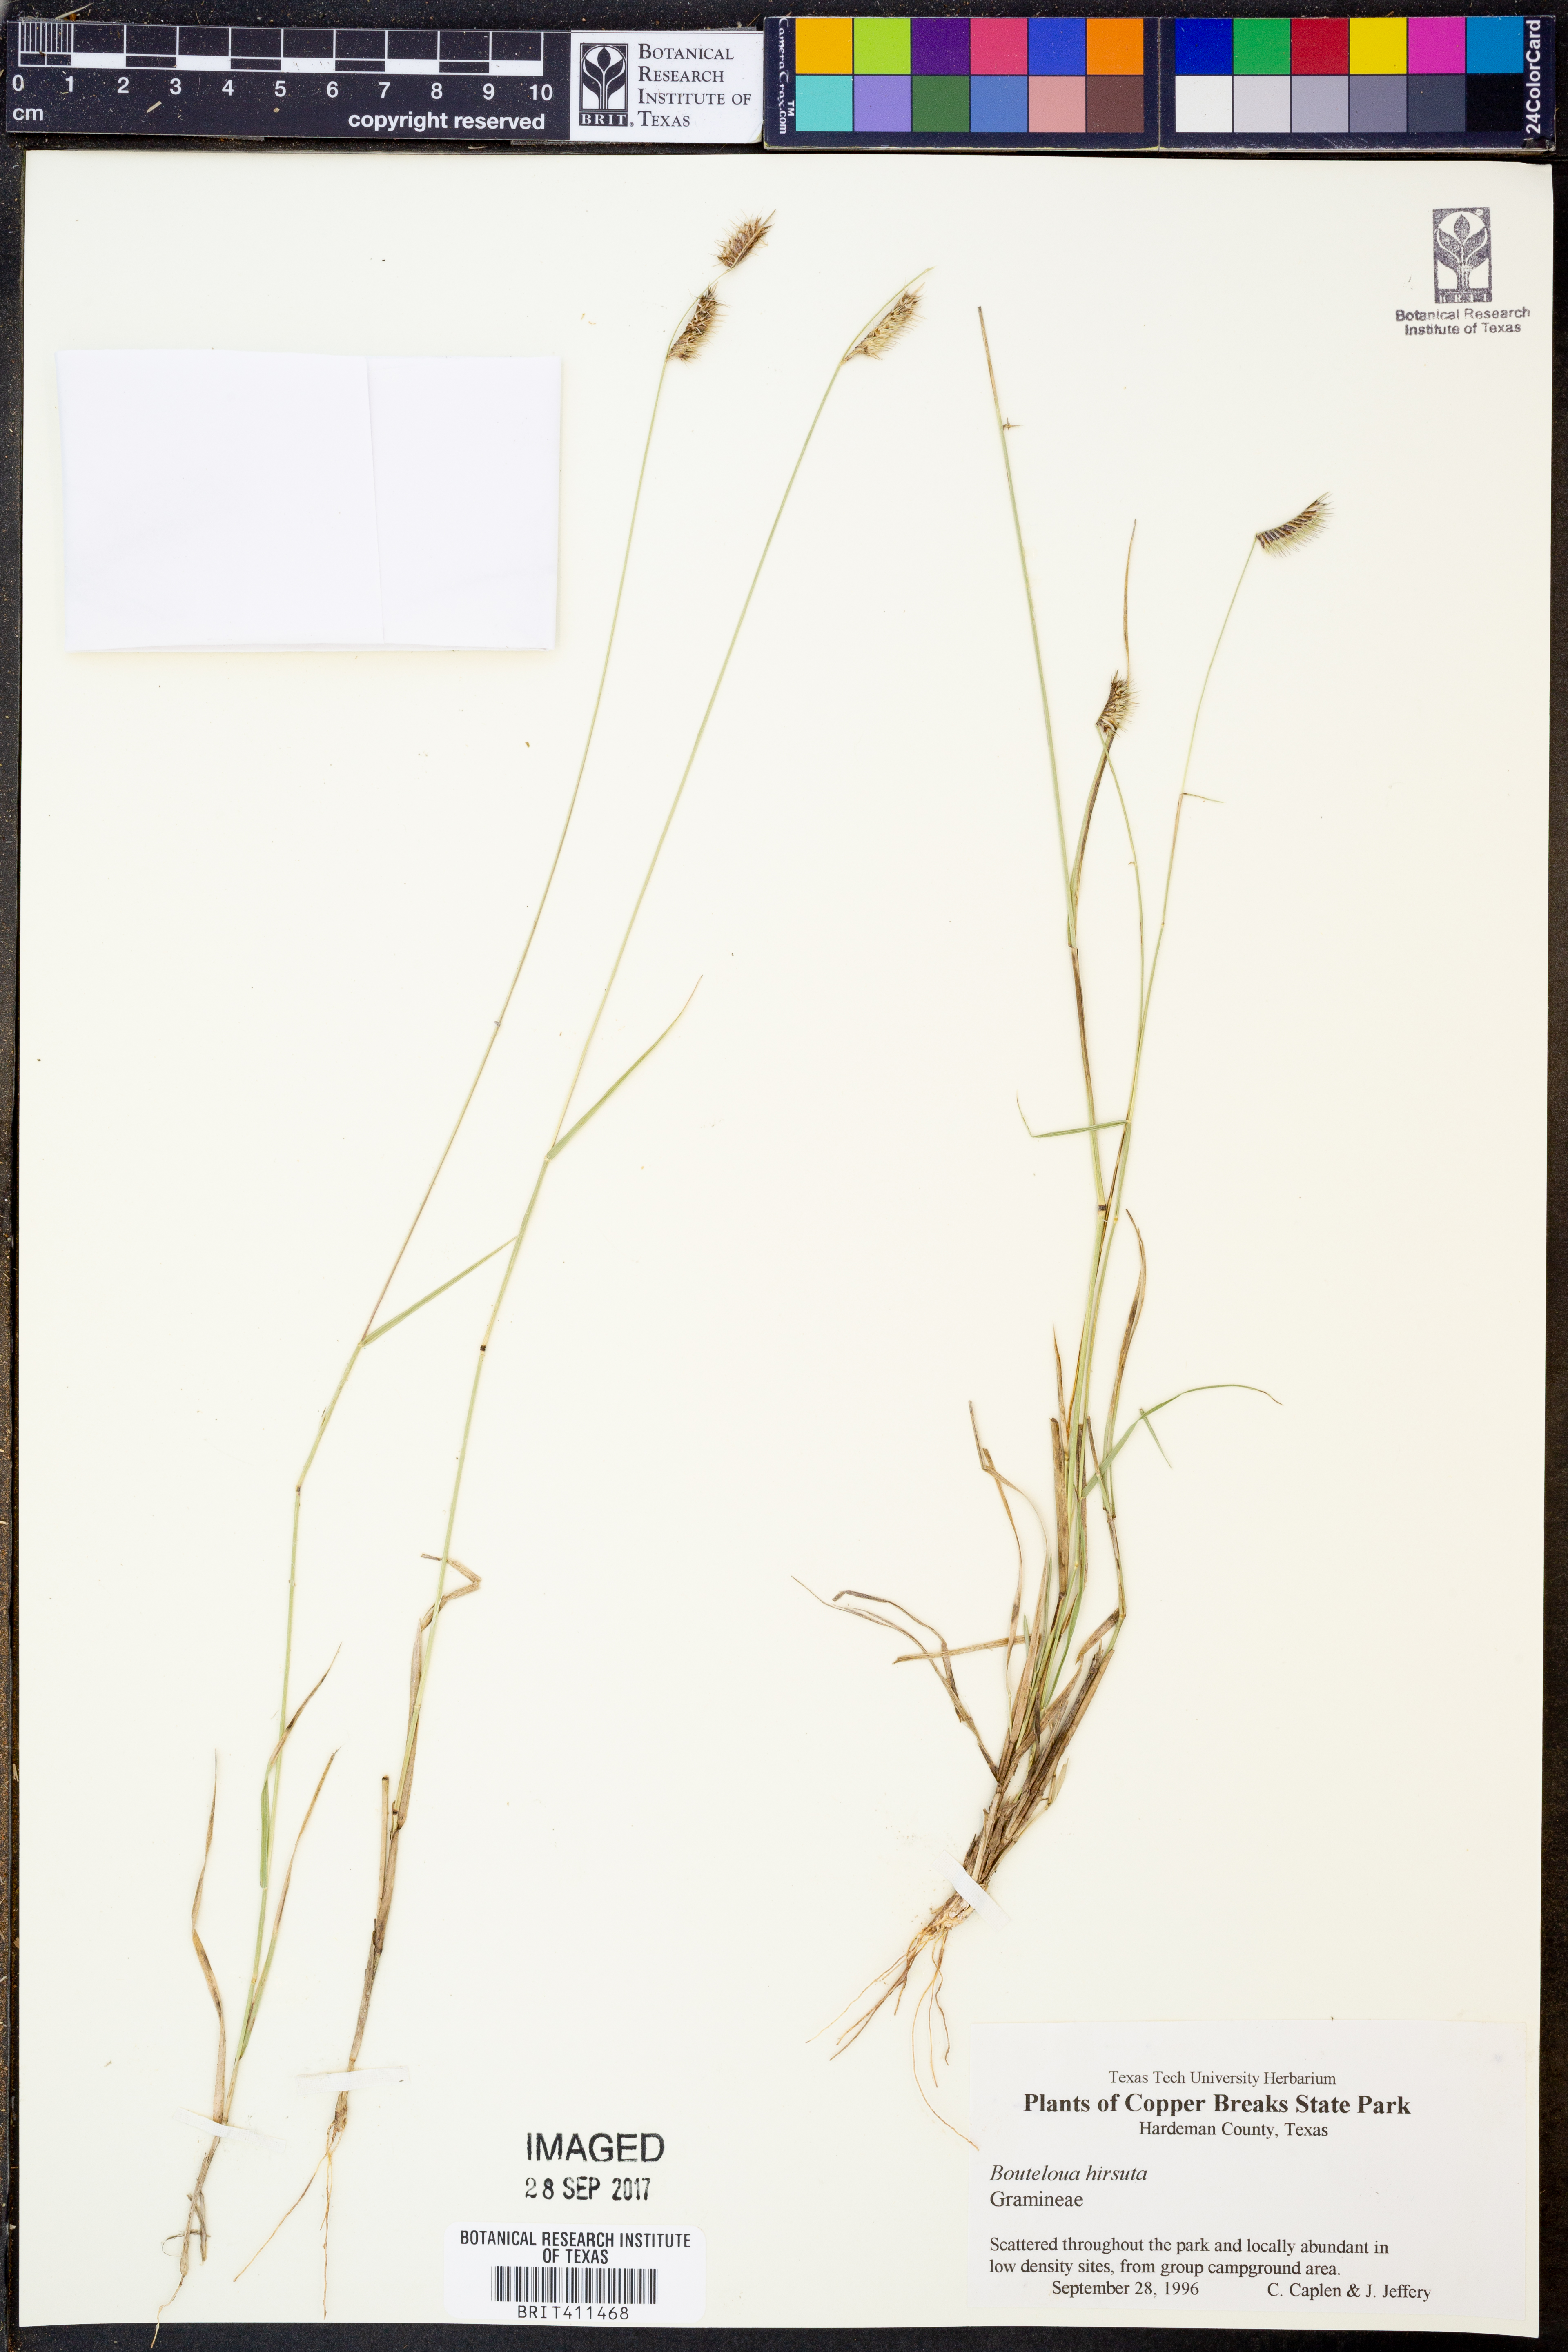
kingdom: Plantae
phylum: Tracheophyta
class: Liliopsida
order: Poales
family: Poaceae
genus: Bouteloua
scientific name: Bouteloua hirsuta
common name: Hairy grama
